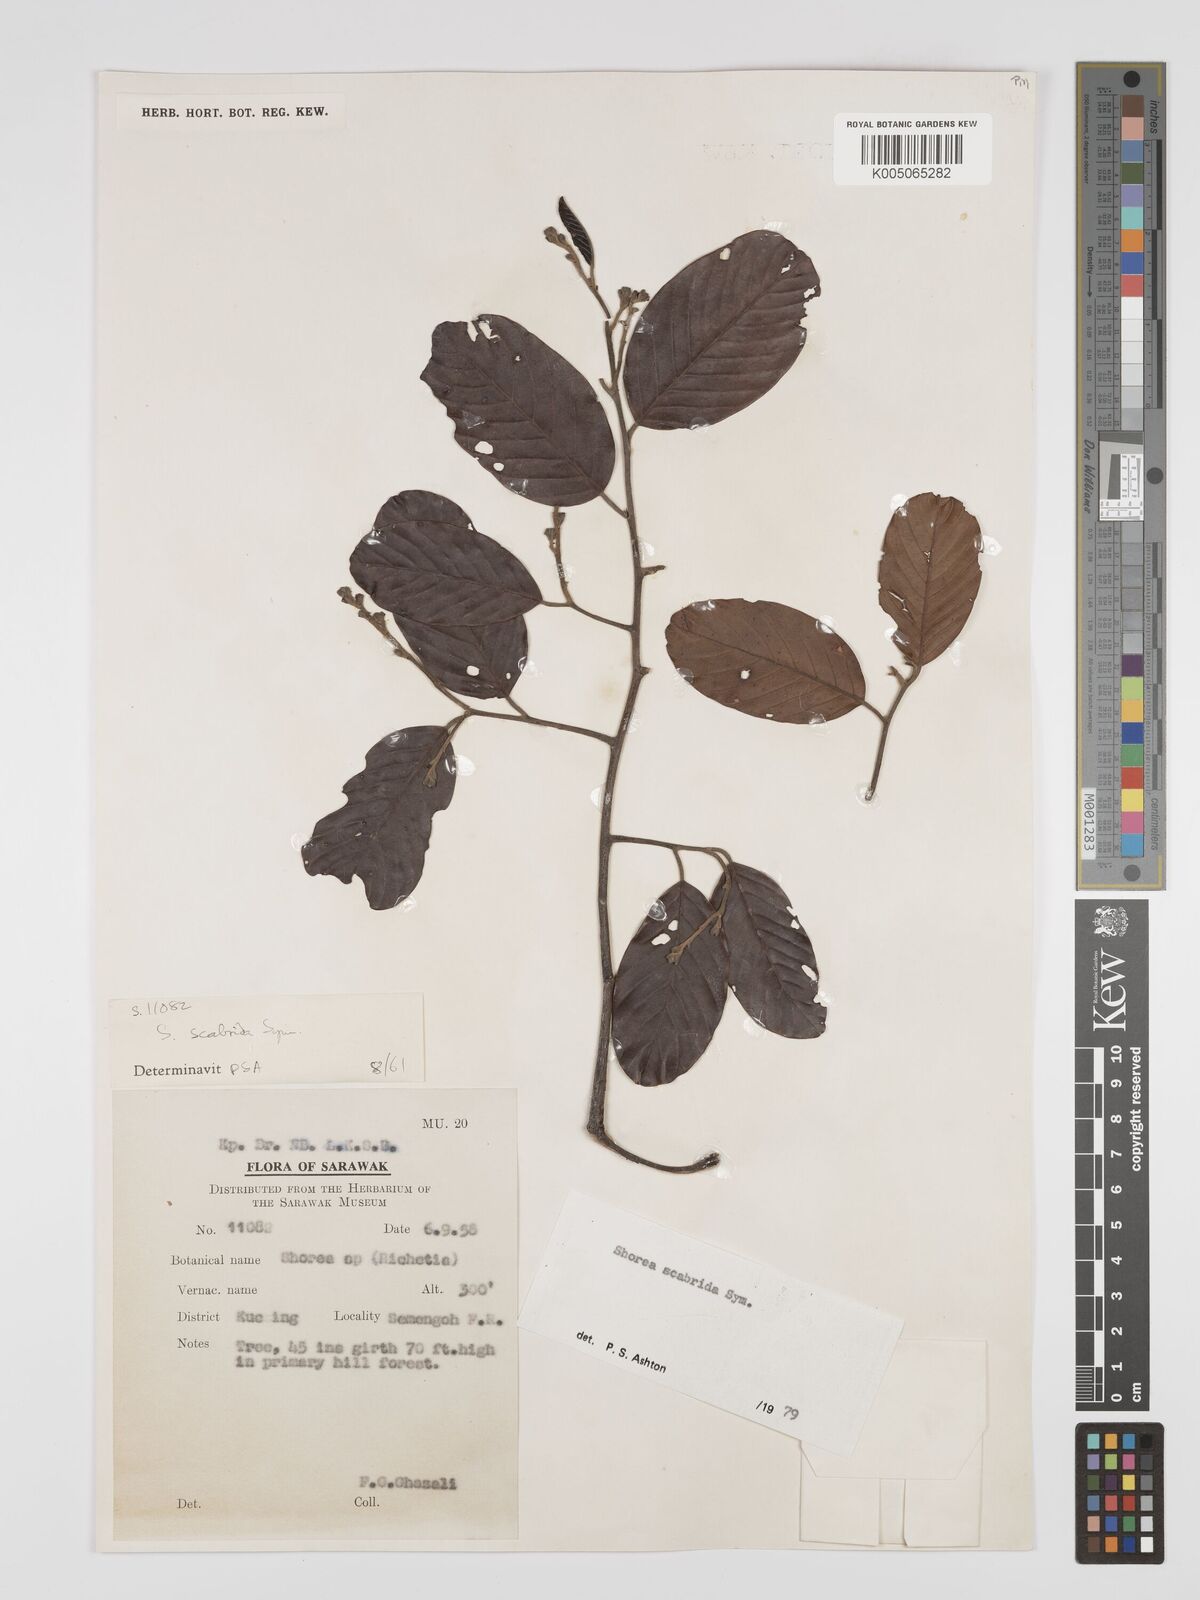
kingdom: Plantae
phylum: Tracheophyta
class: Magnoliopsida
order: Malvales
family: Dipterocarpaceae
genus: Shorea
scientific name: Shorea scabrida
